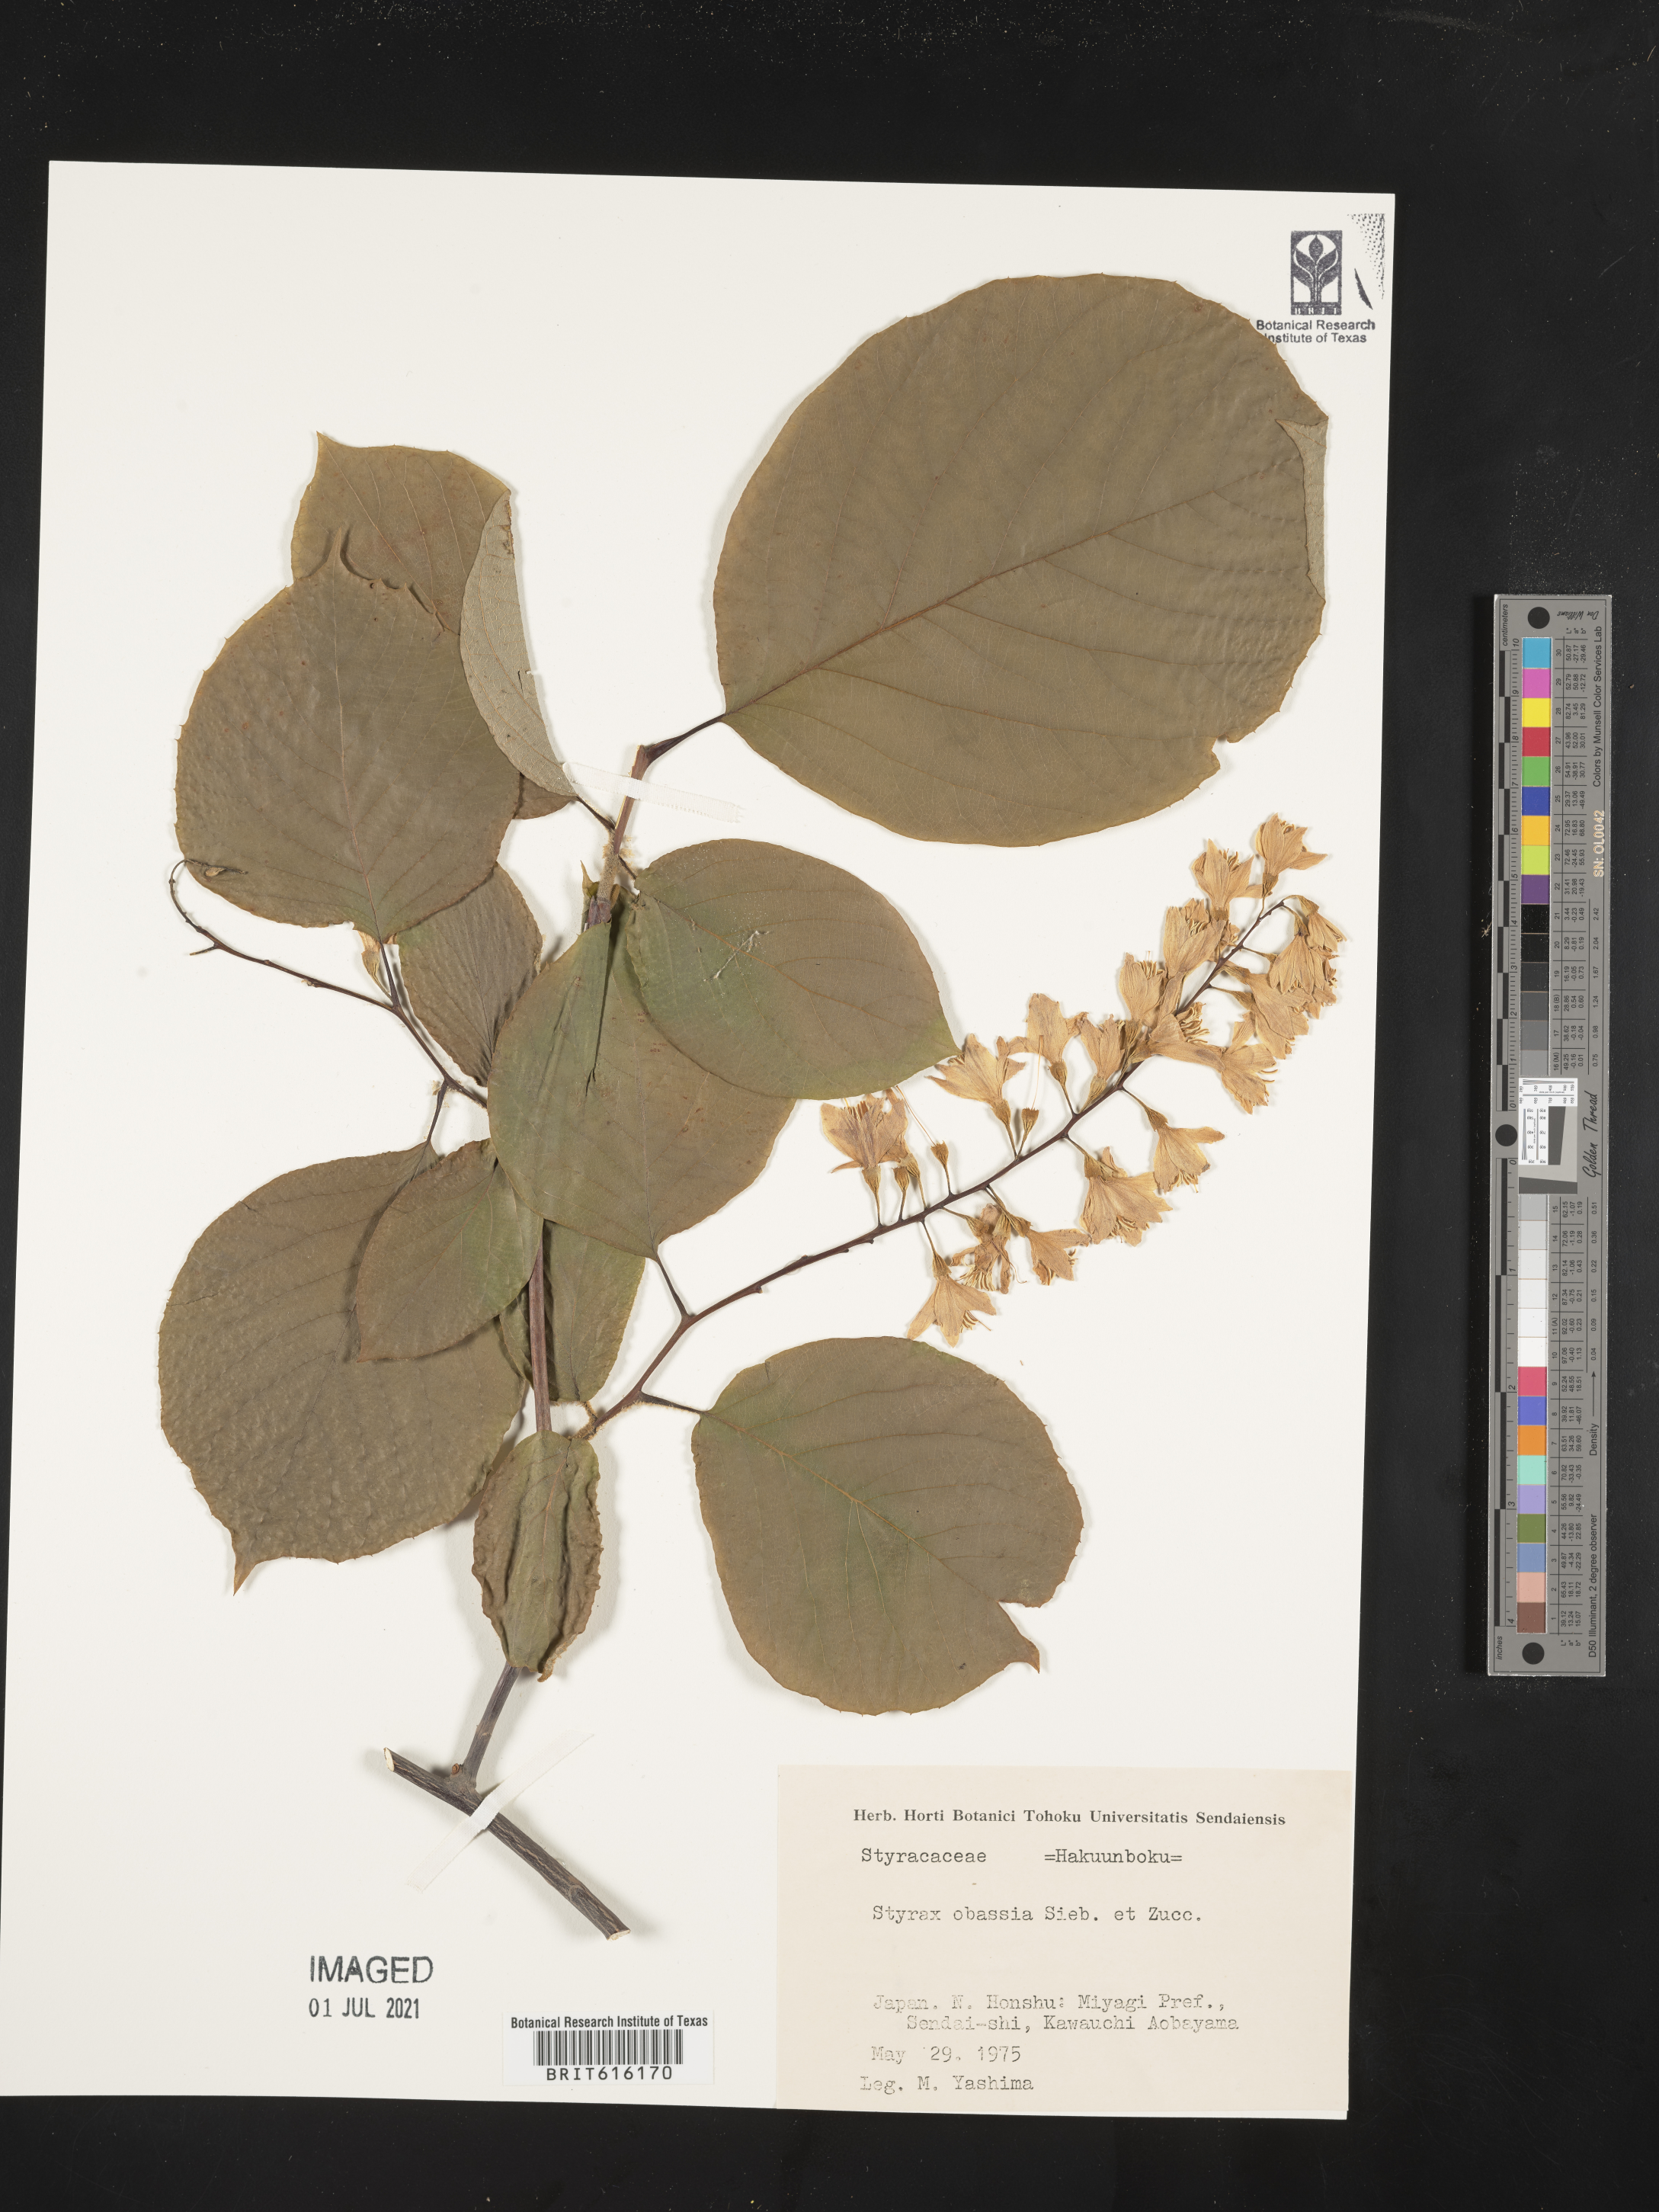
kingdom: Plantae
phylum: Tracheophyta
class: Magnoliopsida
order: Ericales
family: Styracaceae
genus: Styrax
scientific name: Styrax obassia
